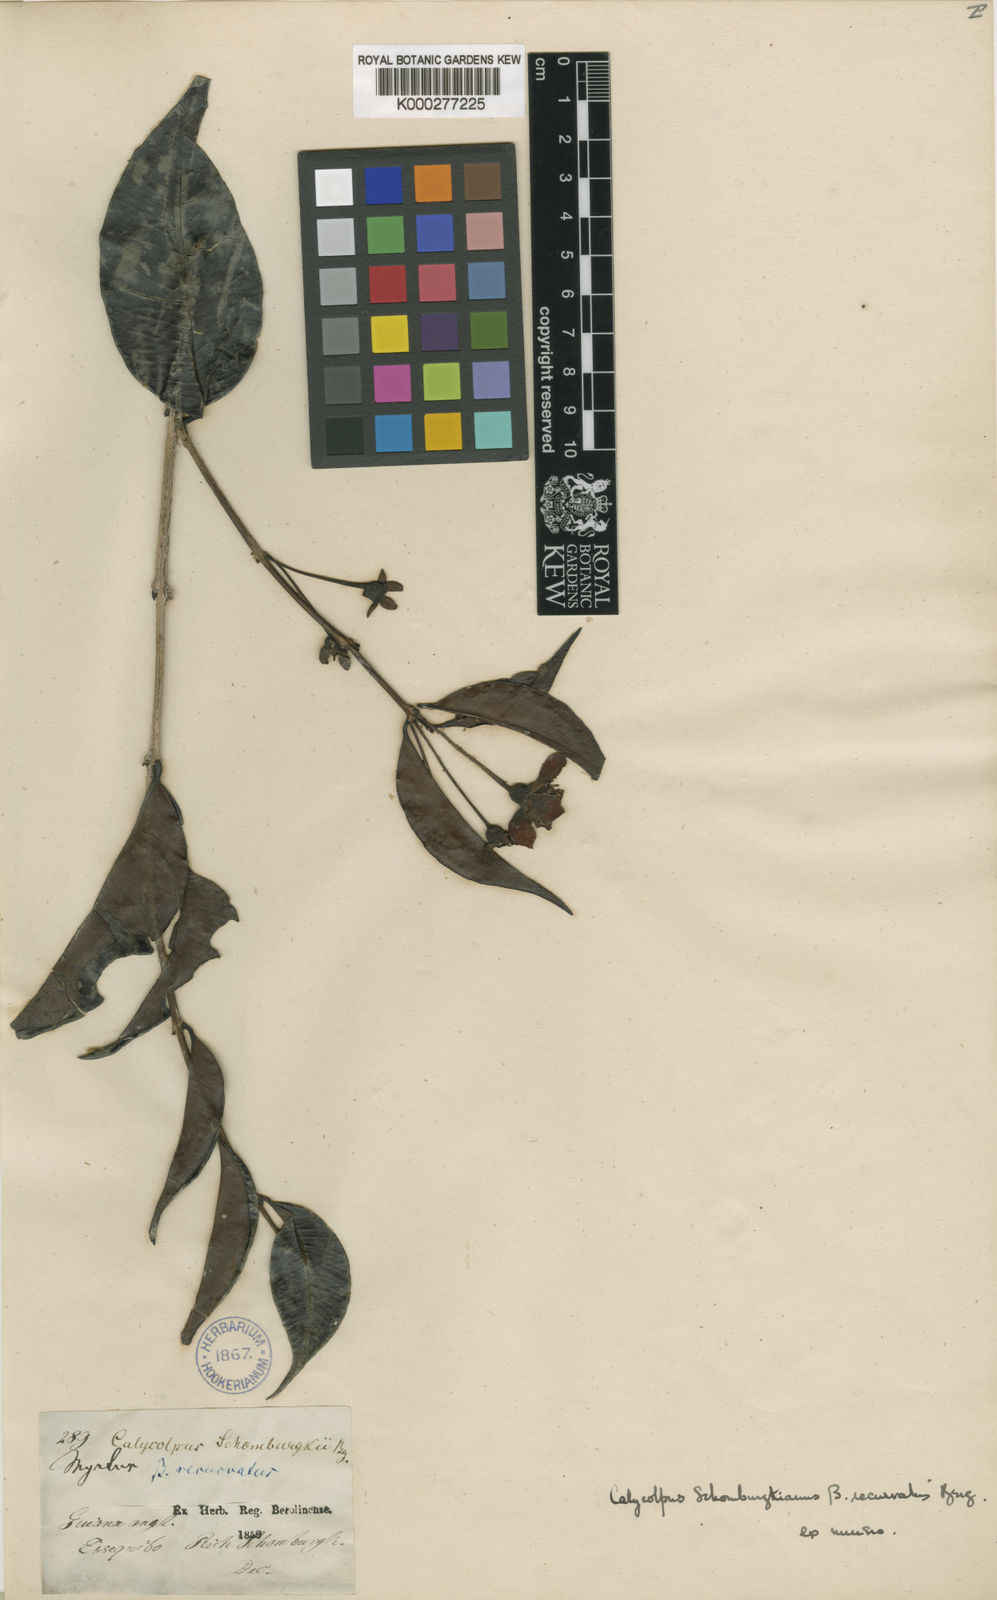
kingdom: Plantae
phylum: Tracheophyta
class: Magnoliopsida
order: Myrtales
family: Myrtaceae
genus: Calycolpus
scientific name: Calycolpus goetheanus
